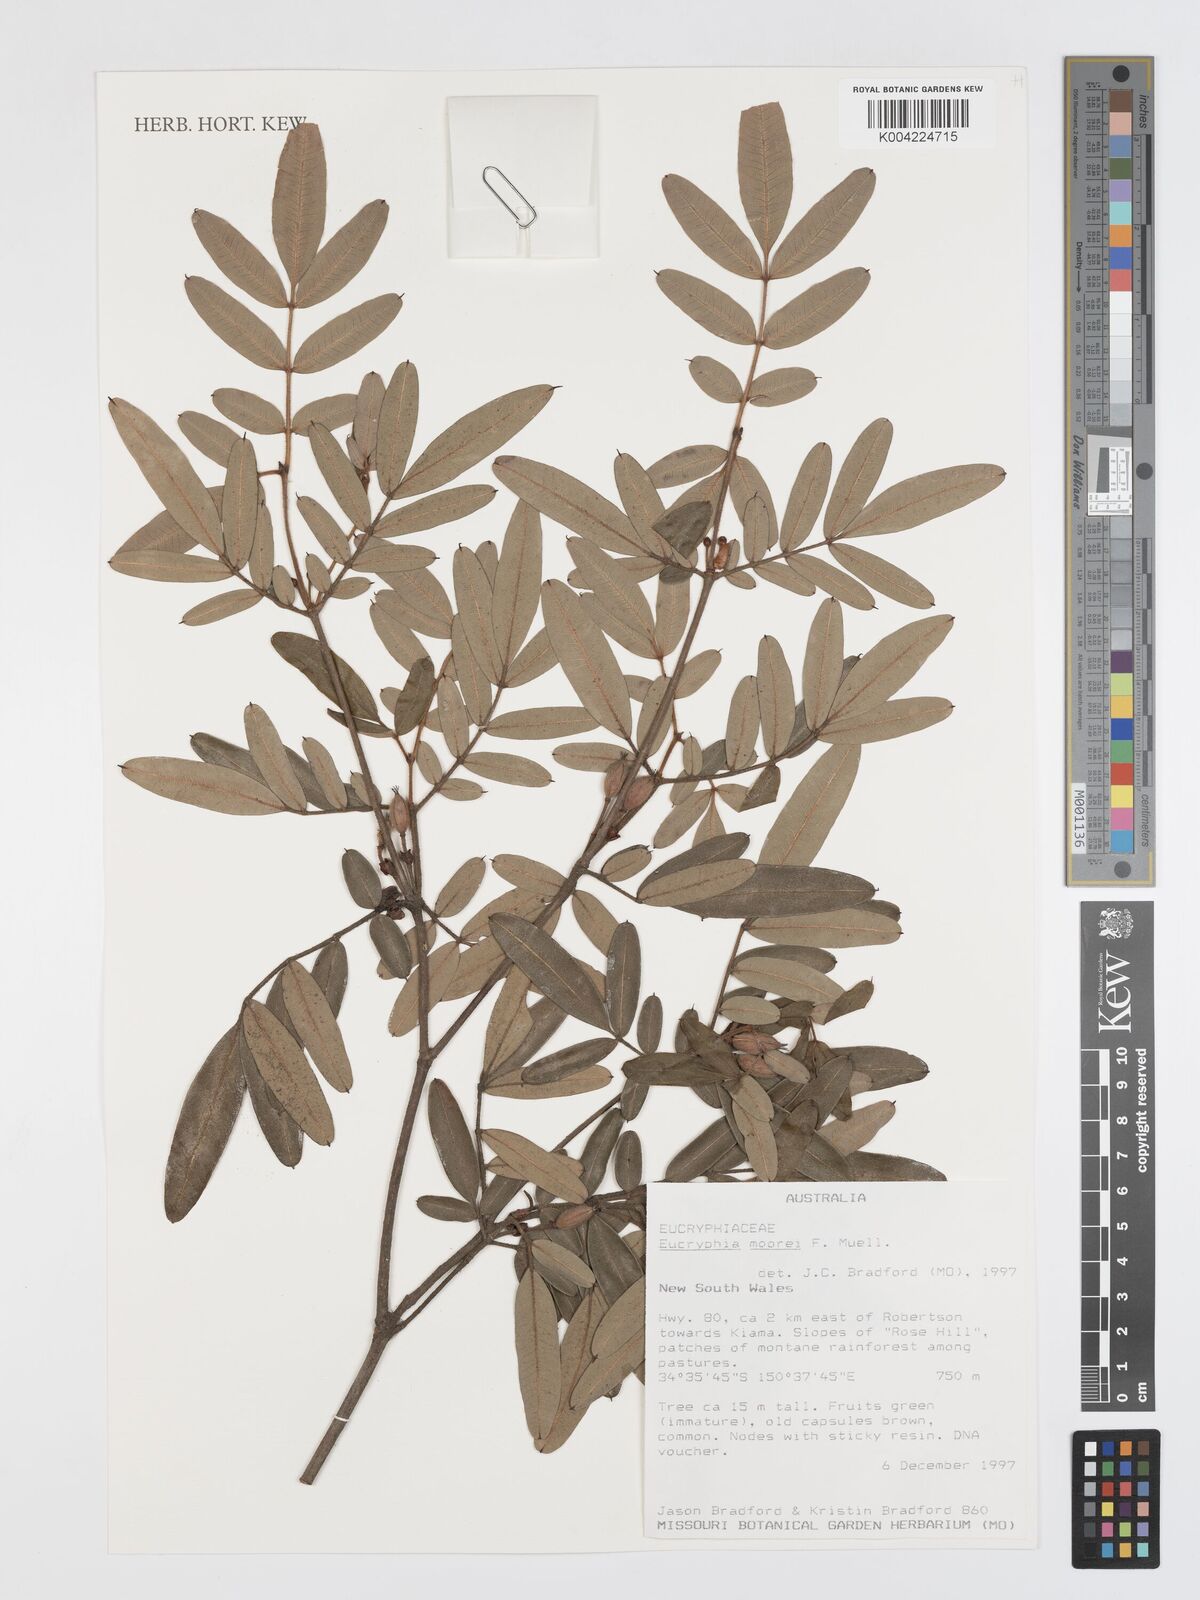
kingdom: Plantae
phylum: Tracheophyta
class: Magnoliopsida
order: Oxalidales
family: Cunoniaceae
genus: Eucryphia
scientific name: Eucryphia moorei
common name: Acacia-plum
